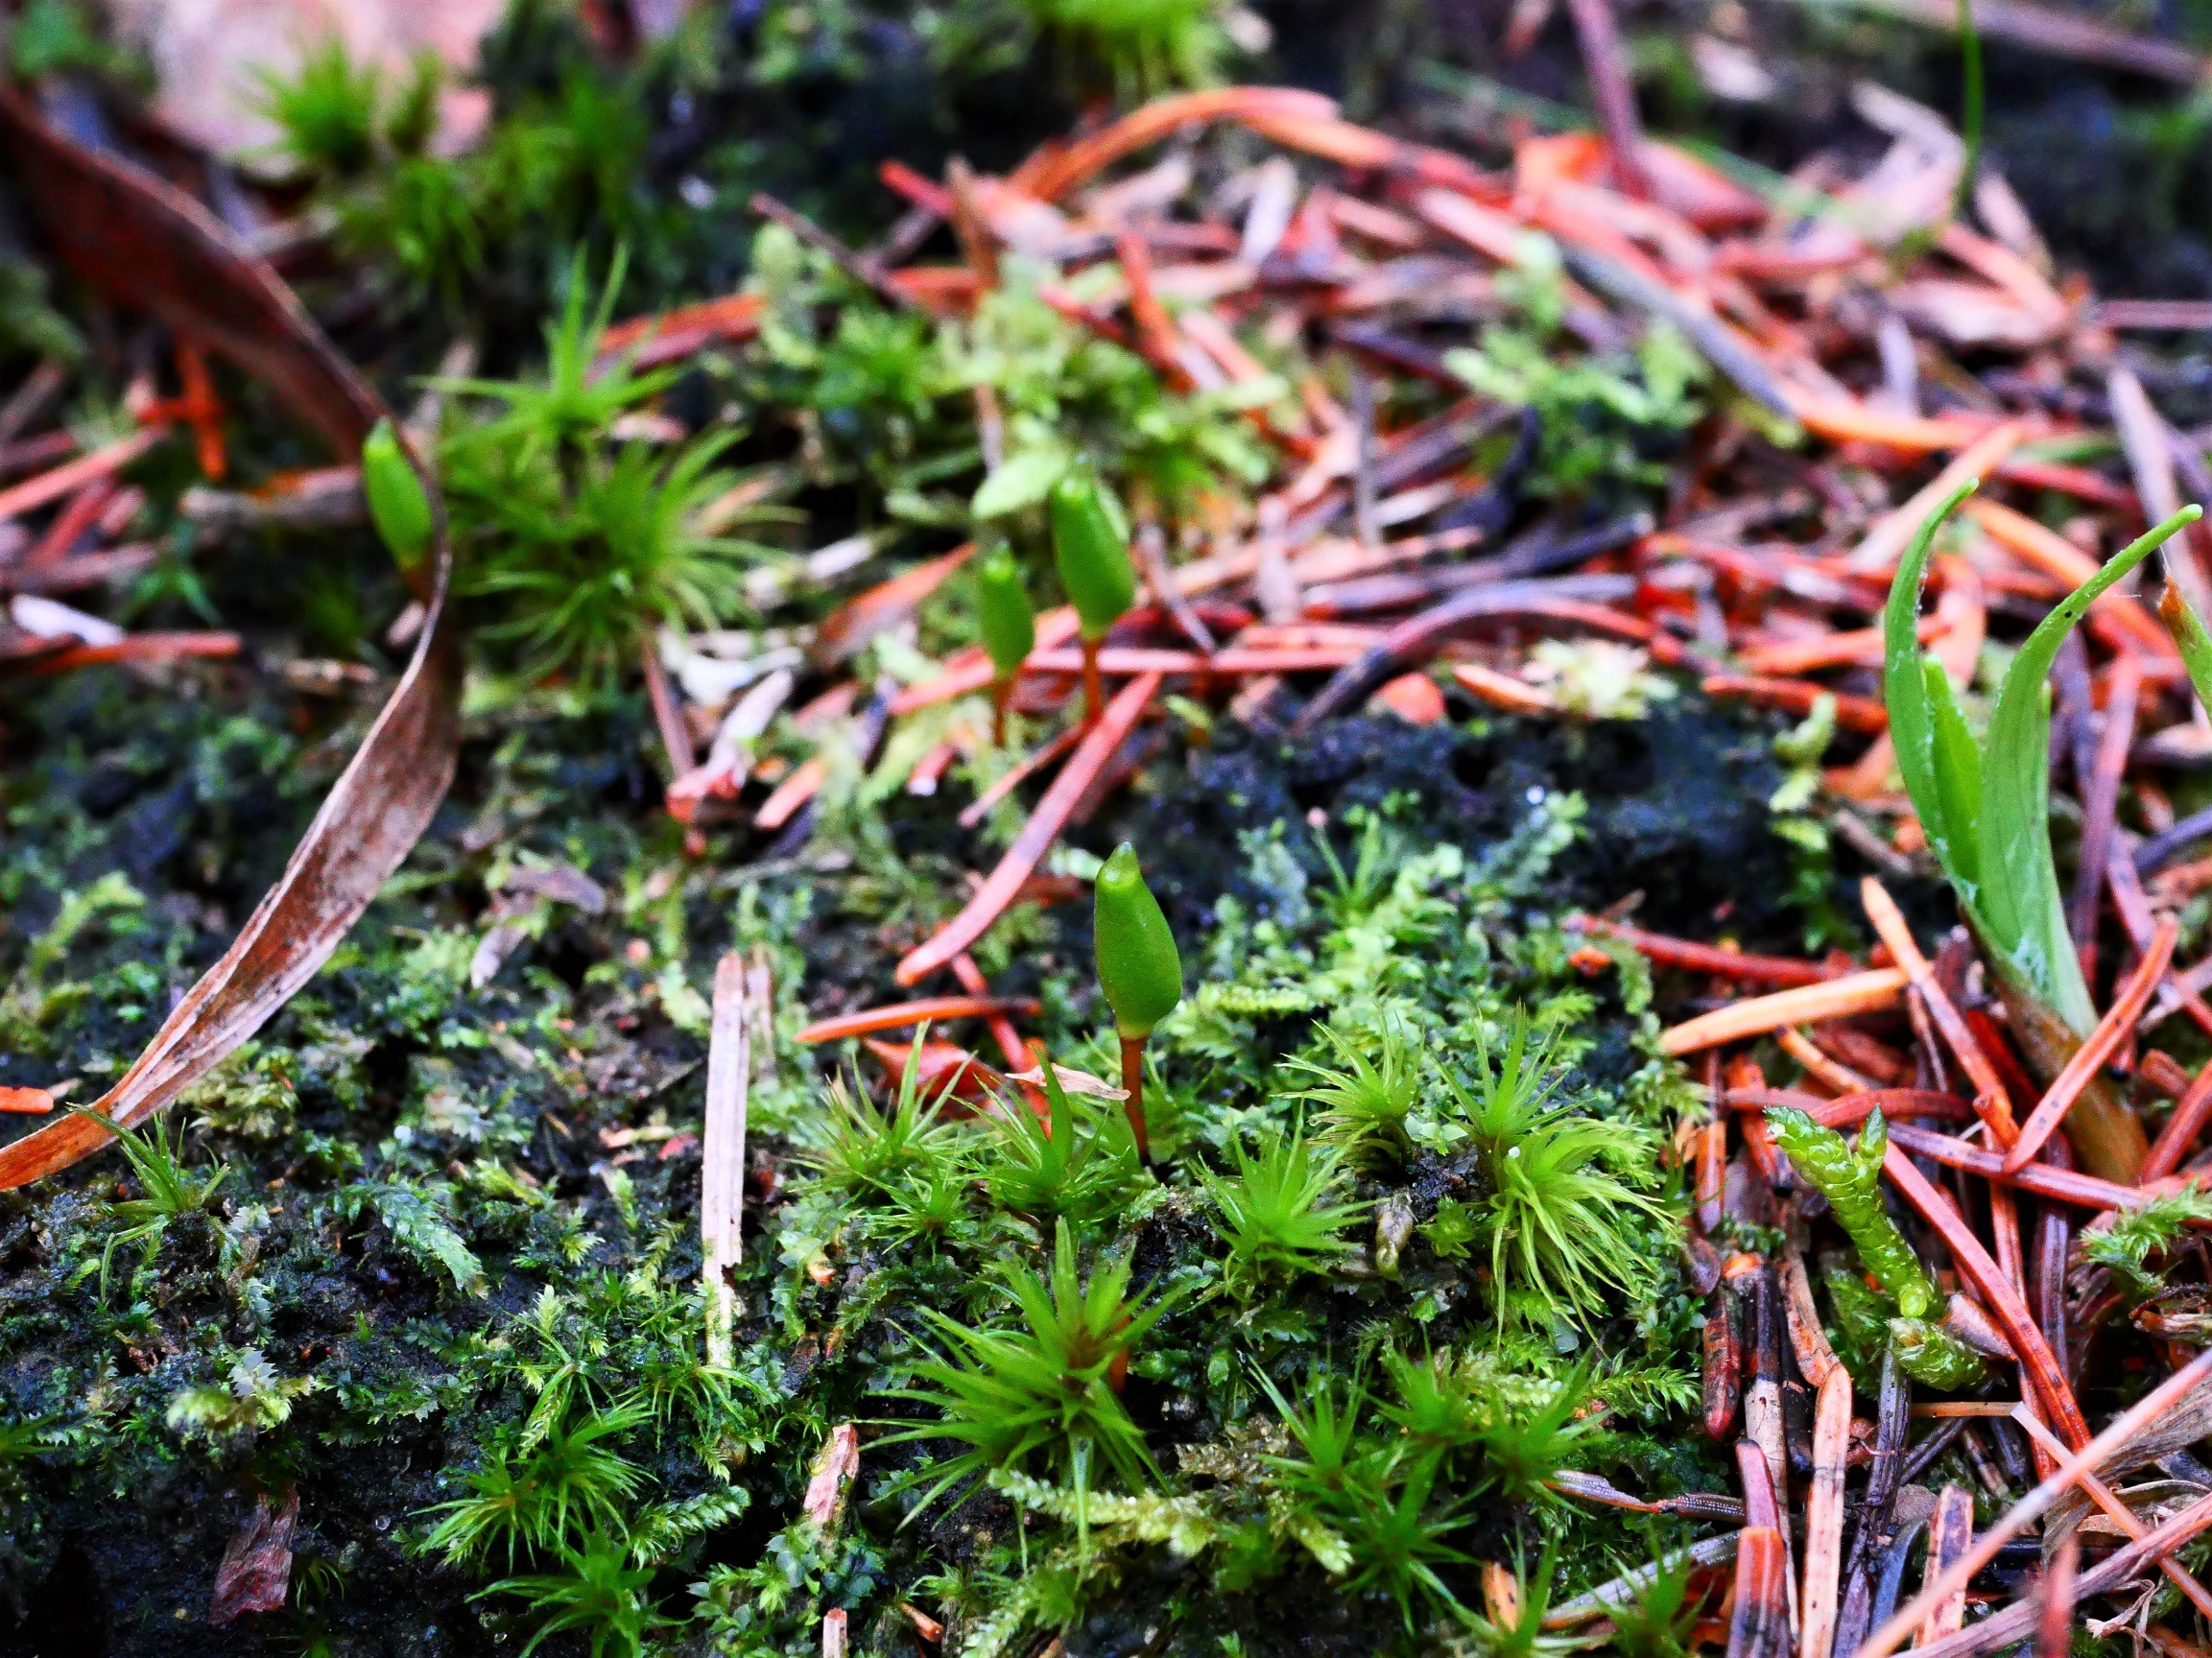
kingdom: Plantae
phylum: Bryophyta
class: Bryopsida
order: Buxbaumiales
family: Buxbaumiaceae
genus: Buxbaumia
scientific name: Buxbaumia viridis
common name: Grøn buxbaumia
